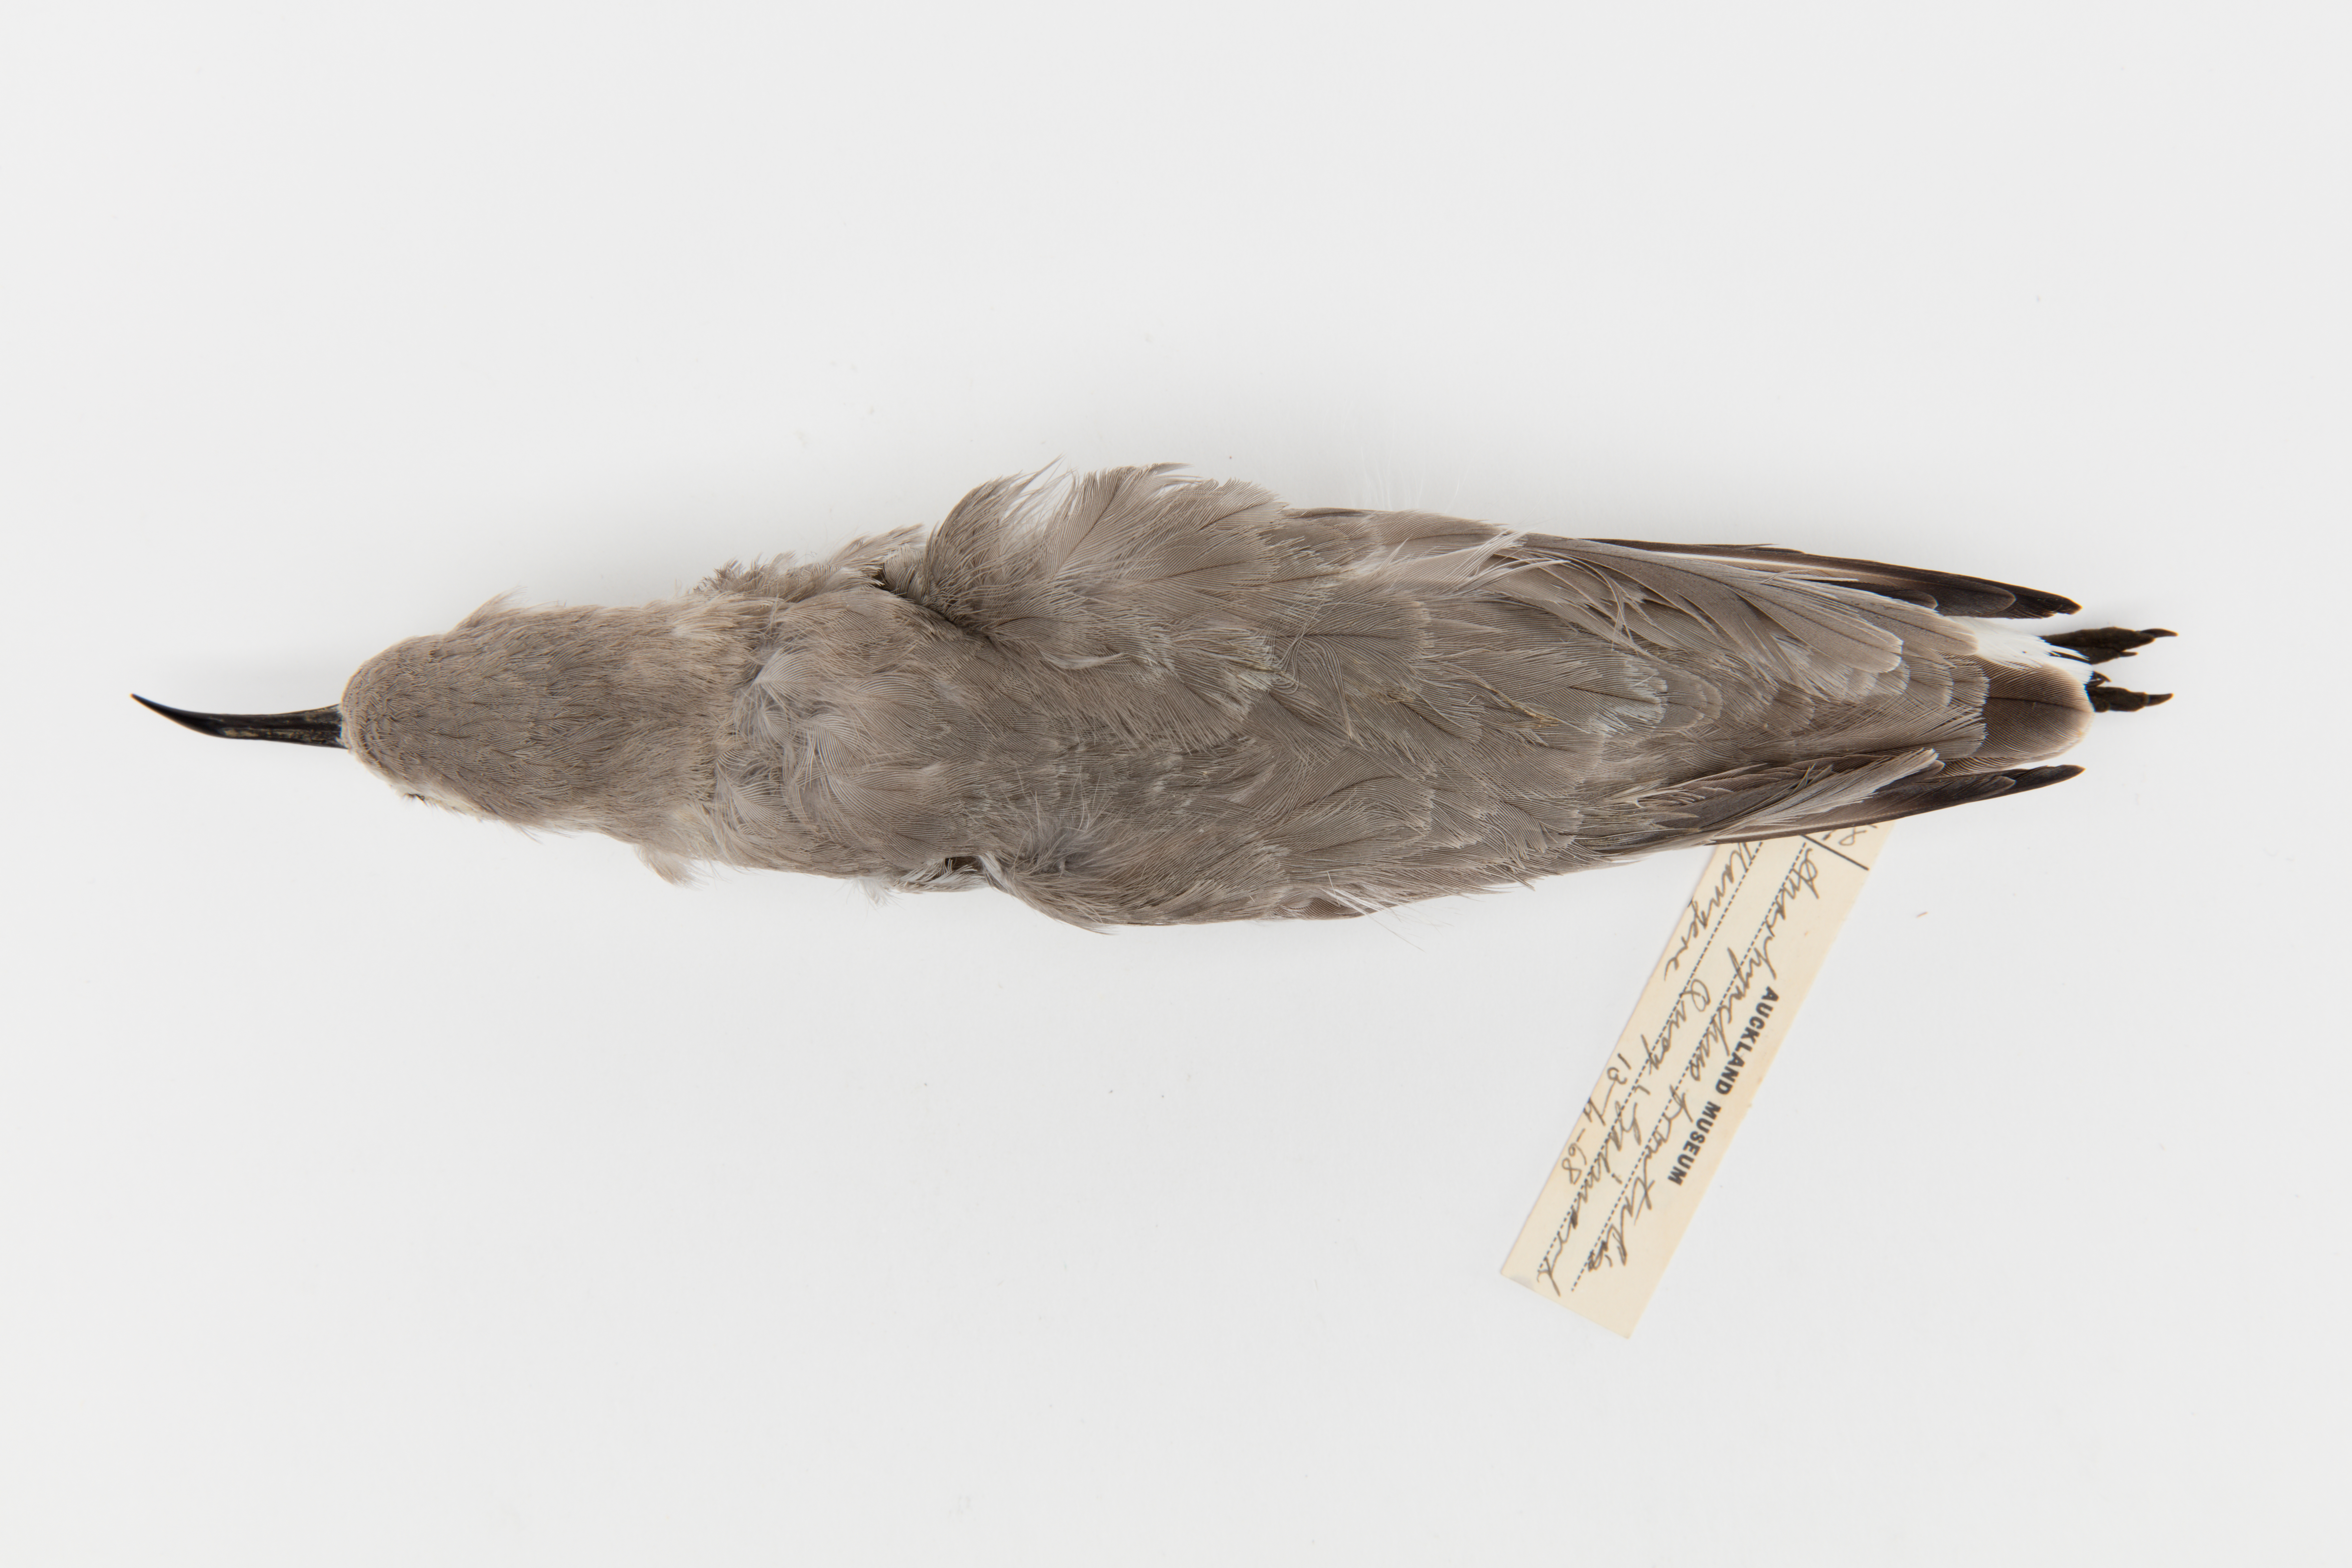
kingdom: Animalia
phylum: Chordata
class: Aves
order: Charadriiformes
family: Charadriidae
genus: Charadrius
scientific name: Charadrius frontalis
